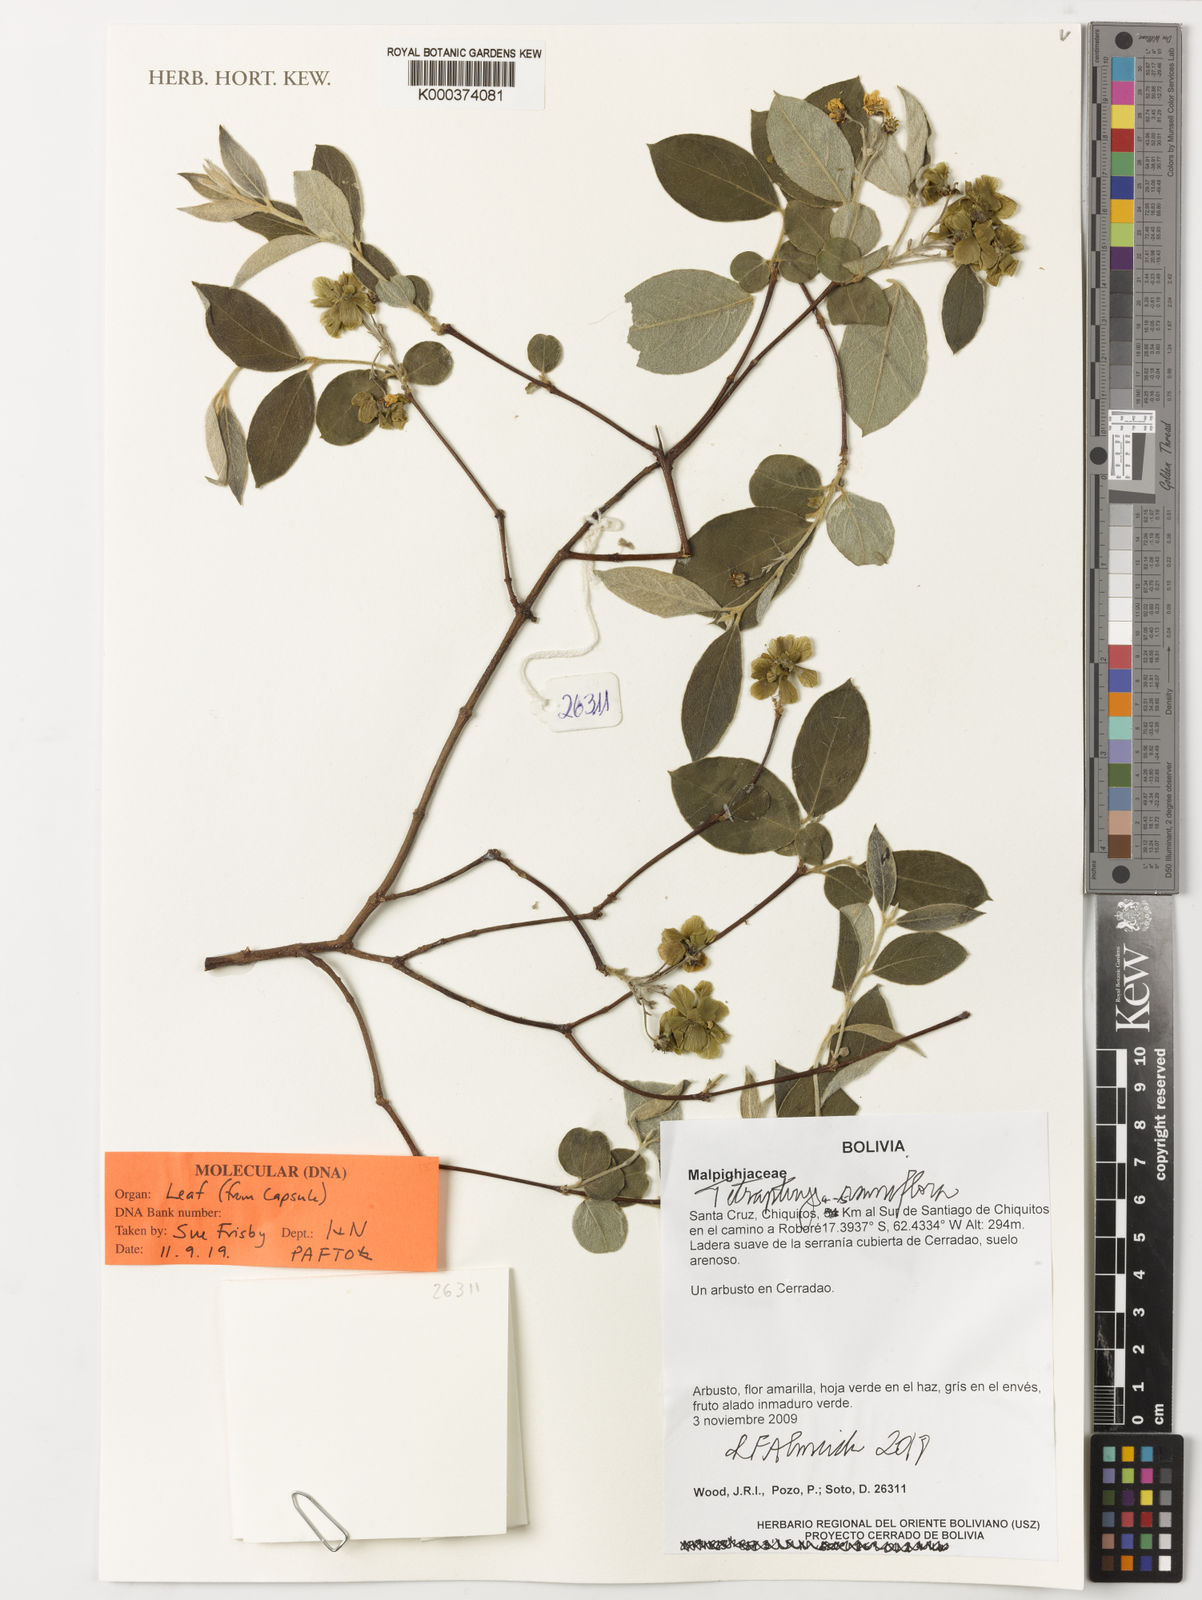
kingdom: Plantae
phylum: Tracheophyta
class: Magnoliopsida
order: Malpighiales
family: Malpighiaceae
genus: Glicophyllum
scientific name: Glicophyllum ramiflorum
